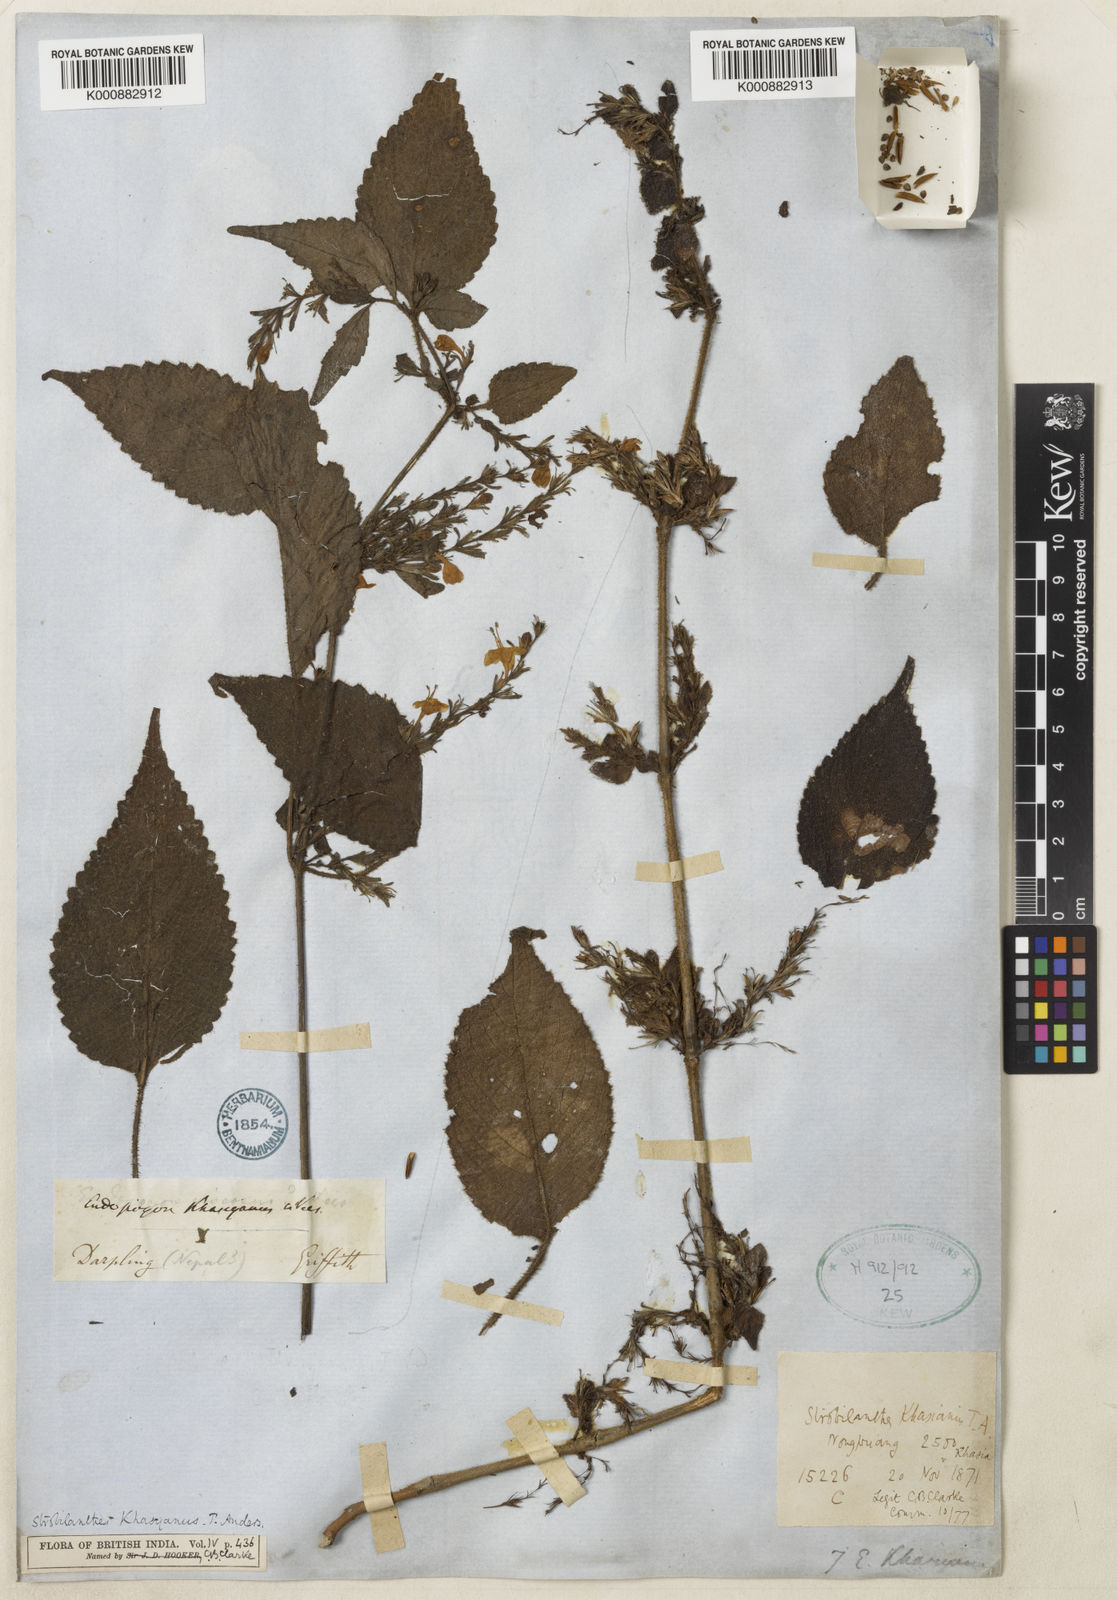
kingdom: Plantae
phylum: Tracheophyta
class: Magnoliopsida
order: Lamiales
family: Acanthaceae
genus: Strobilanthes
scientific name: Strobilanthes khasyana
